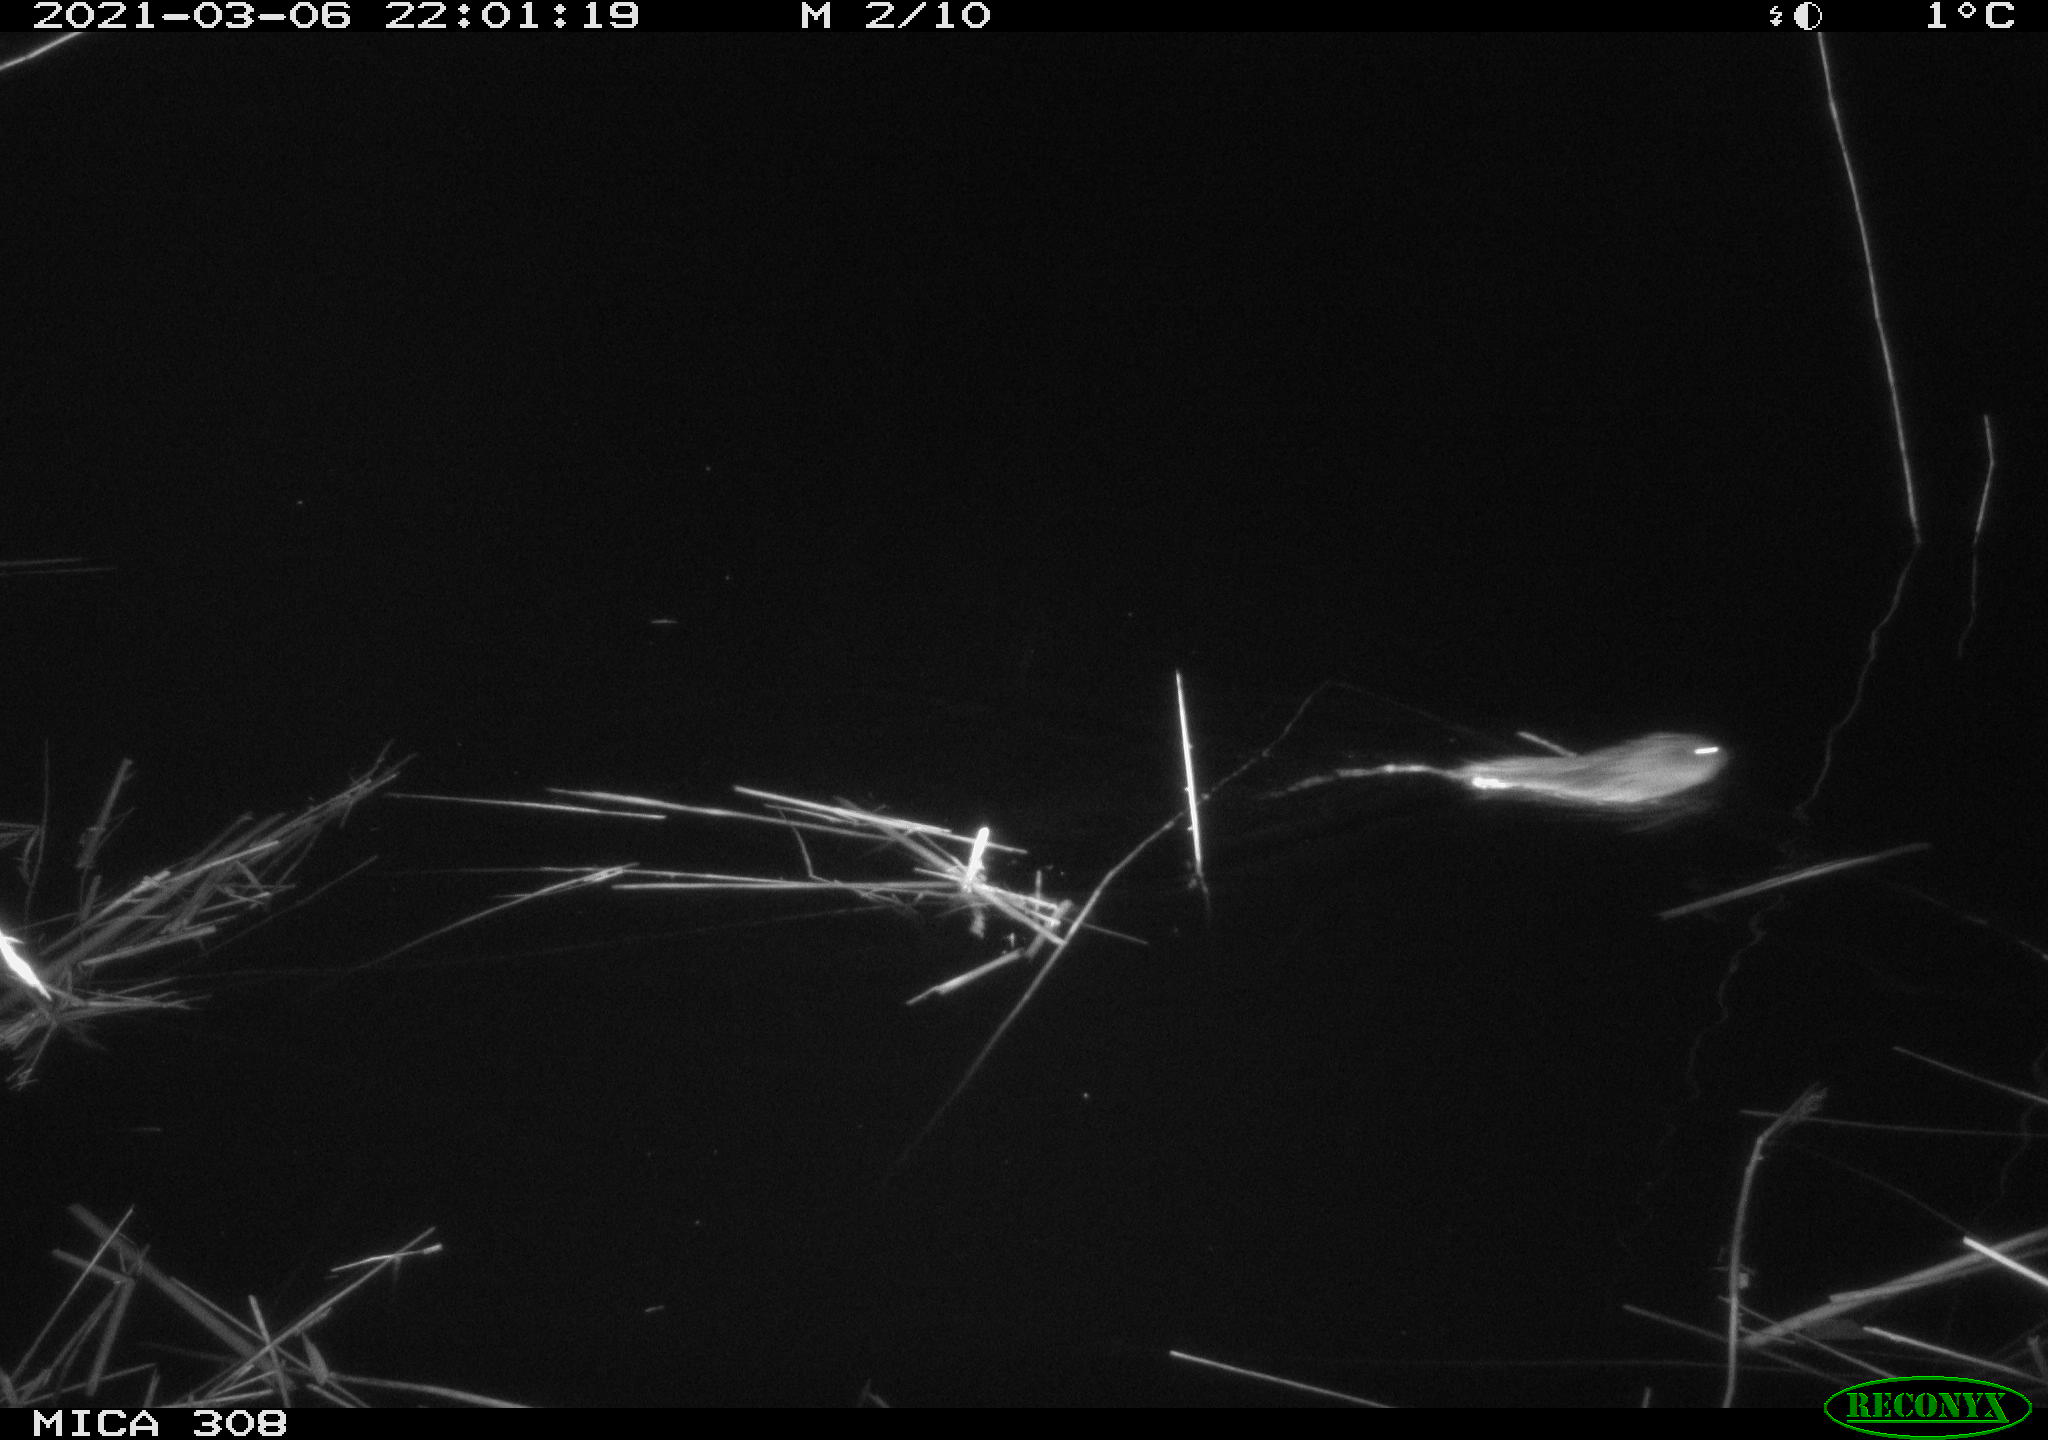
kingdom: Animalia
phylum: Chordata
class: Mammalia
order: Rodentia
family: Cricetidae
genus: Ondatra
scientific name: Ondatra zibethicus
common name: Muskrat
